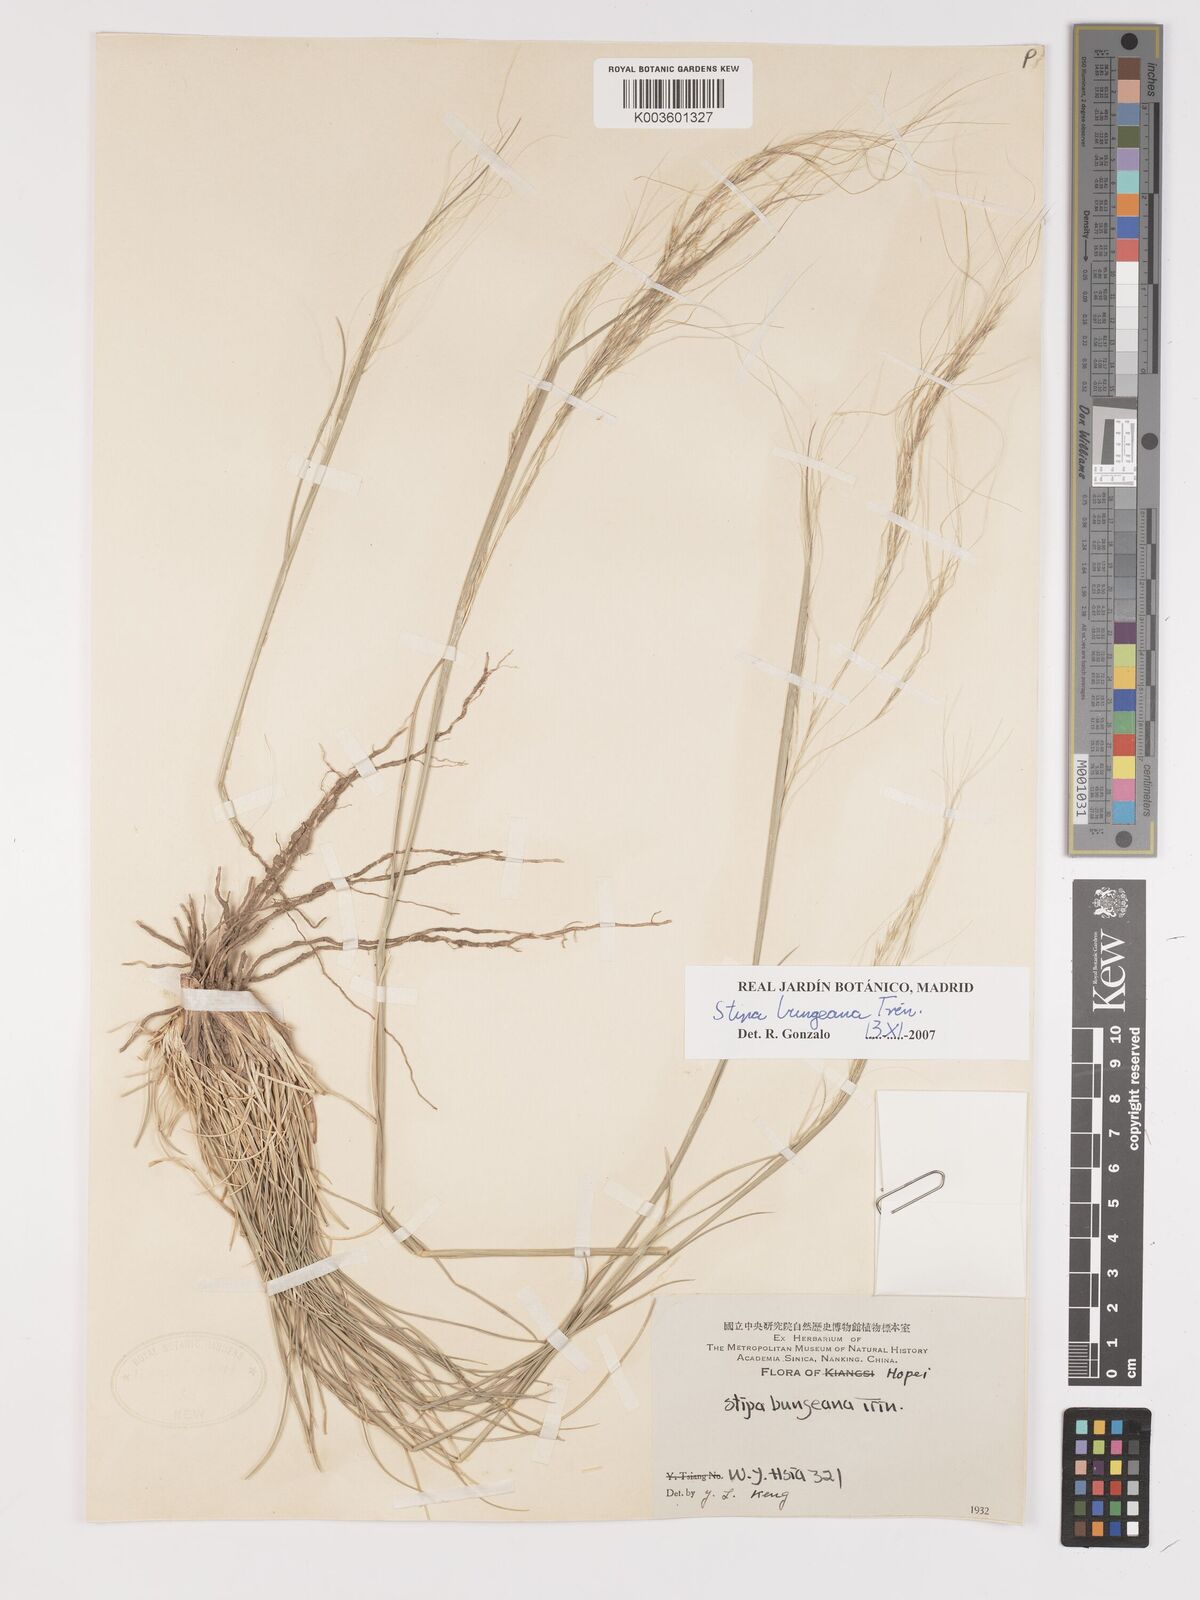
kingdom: Plantae
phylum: Tracheophyta
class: Liliopsida
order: Poales
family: Poaceae
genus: Stipa
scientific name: Stipa bungeana
